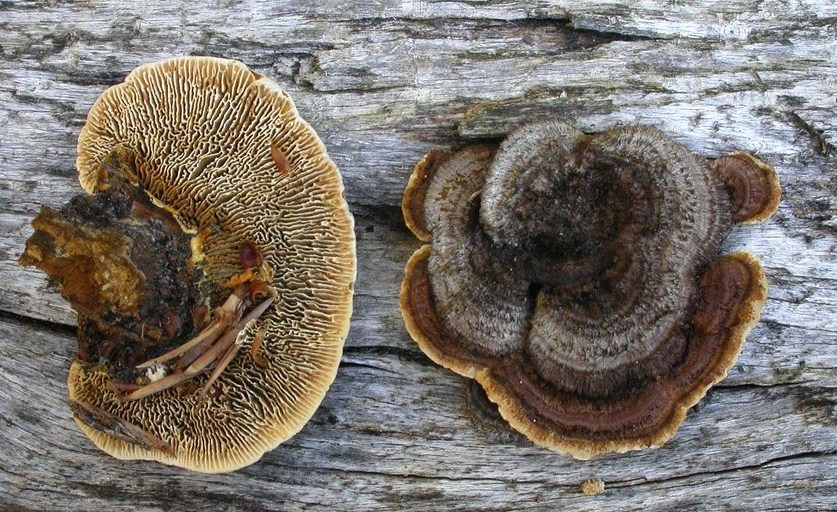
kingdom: Fungi
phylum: Basidiomycota
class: Agaricomycetes
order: Gloeophyllales
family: Gloeophyllaceae
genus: Gloeophyllum
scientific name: Gloeophyllum sepiarium
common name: fyrre-korkhat
